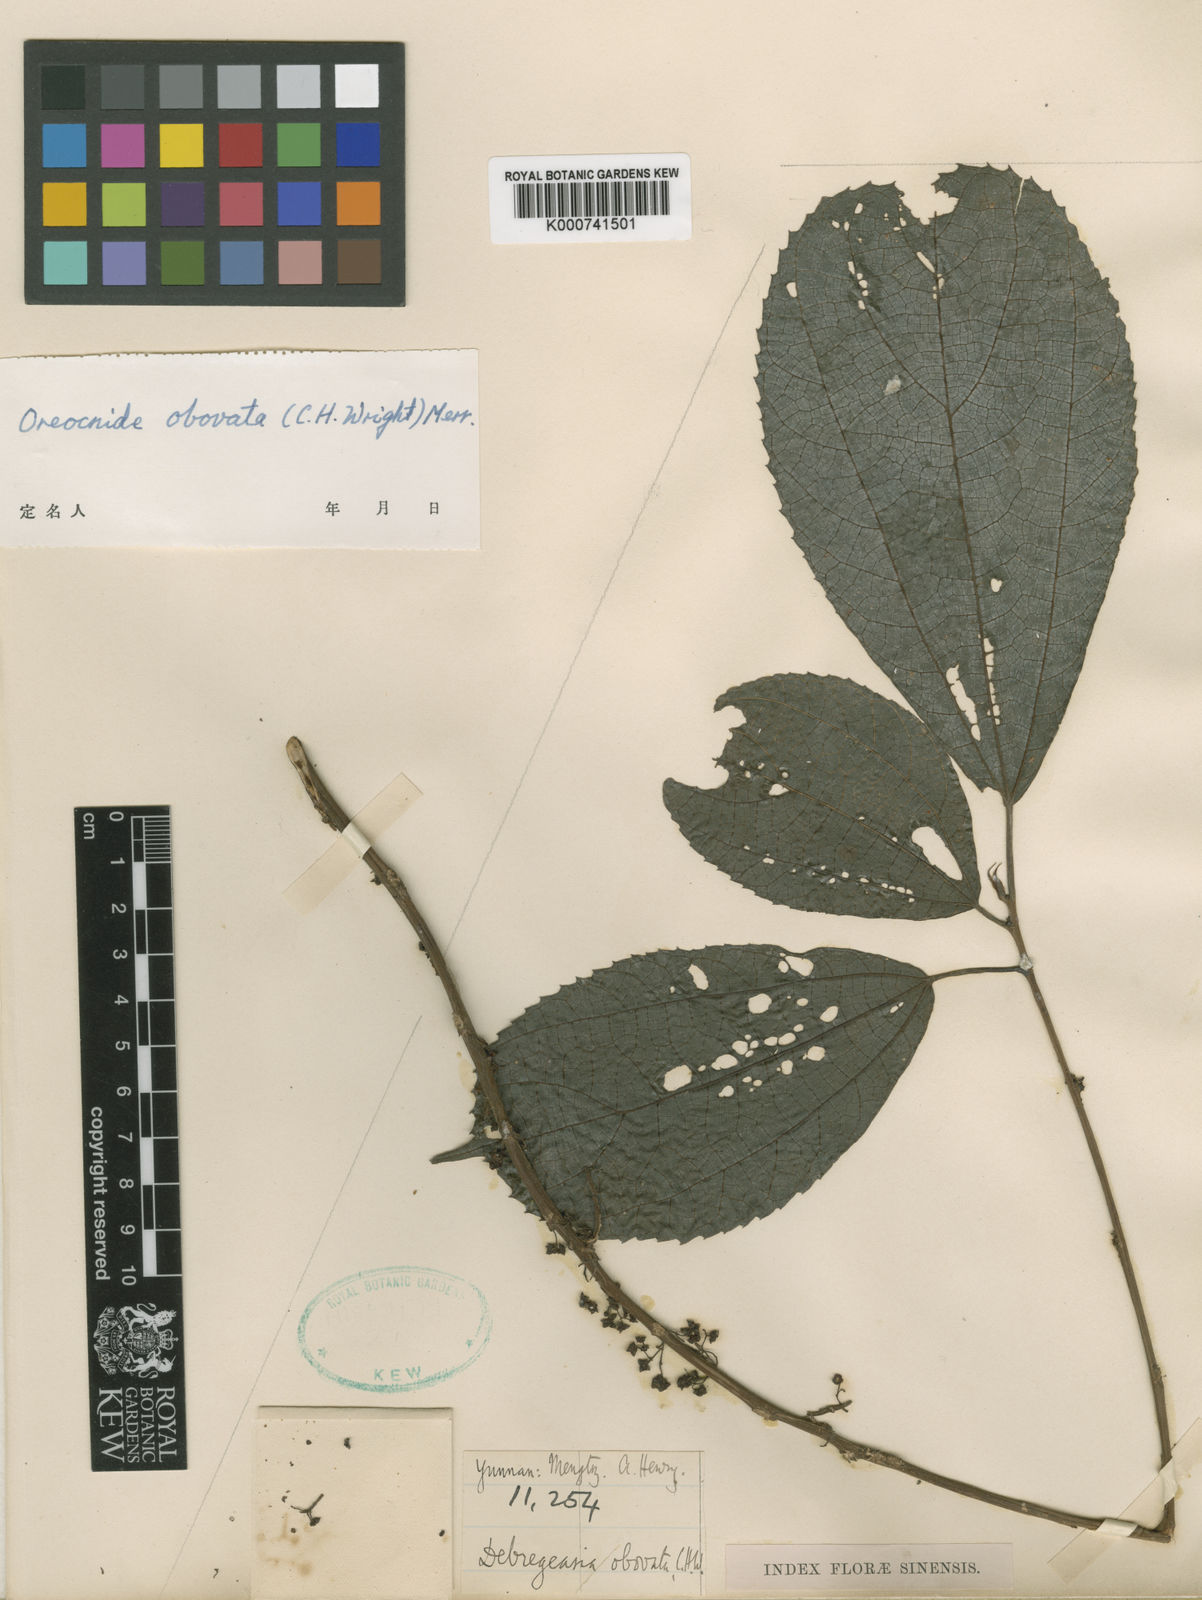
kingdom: Plantae
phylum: Tracheophyta
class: Magnoliopsida
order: Rosales
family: Urticaceae
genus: Oreocnide
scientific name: Oreocnide obovata
